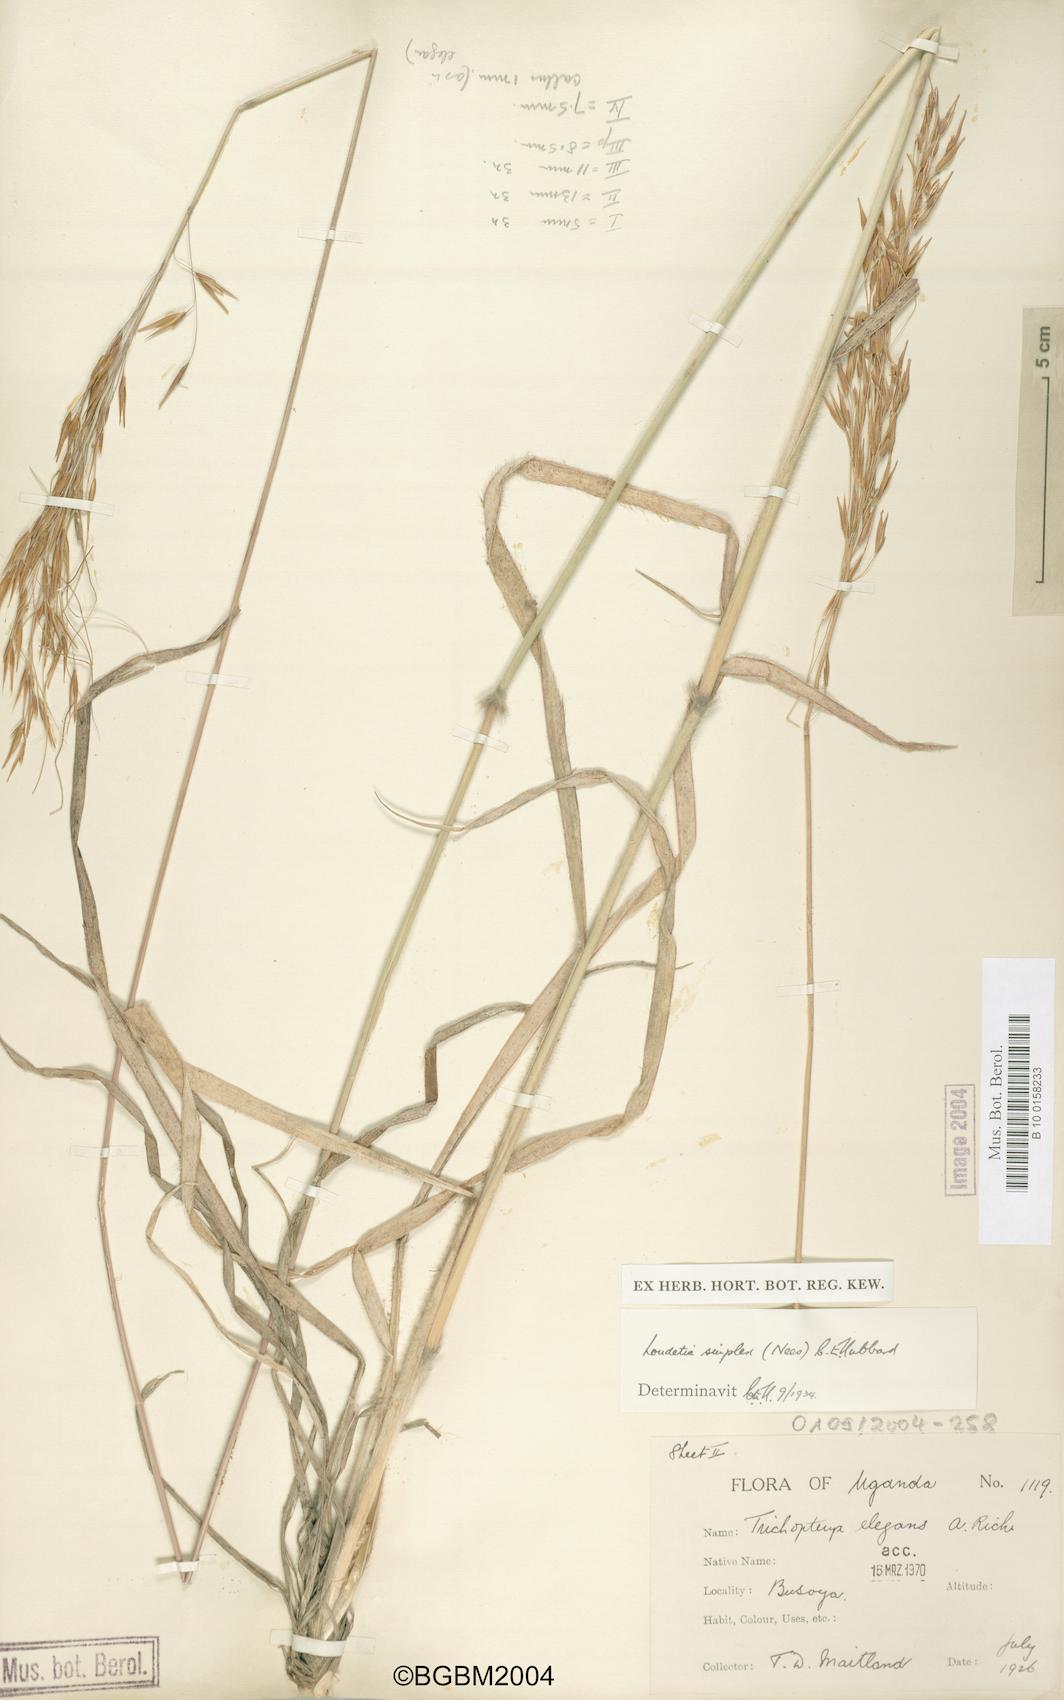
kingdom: Plantae
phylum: Tracheophyta
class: Liliopsida
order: Poales
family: Poaceae
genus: Loudetia
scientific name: Loudetia simplex
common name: Common russet grass
